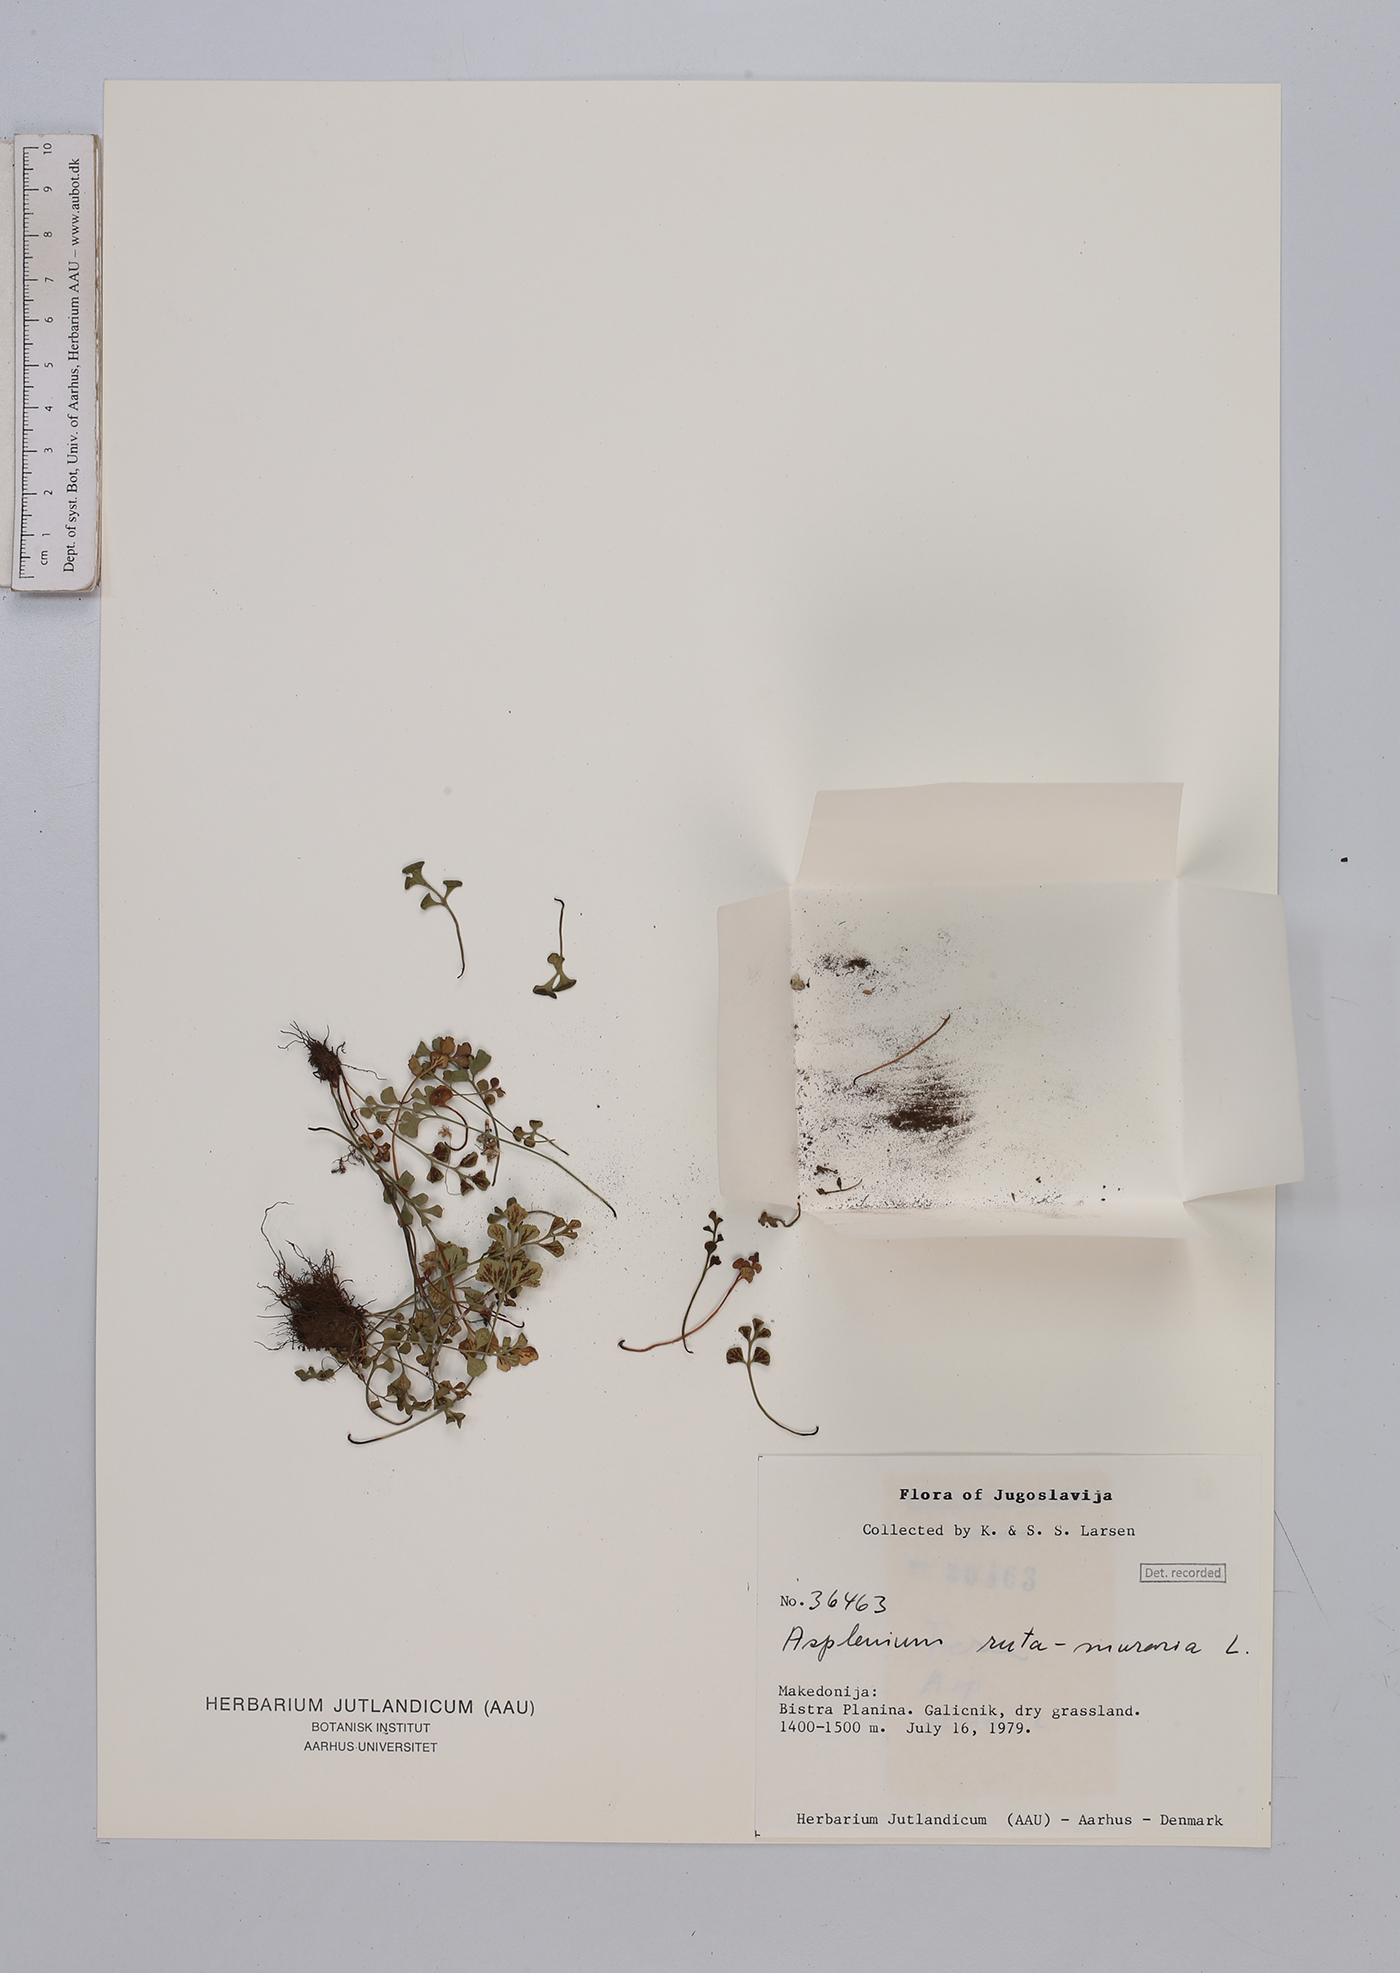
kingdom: Plantae
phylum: Tracheophyta
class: Polypodiopsida
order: Polypodiales
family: Aspleniaceae
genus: Asplenium
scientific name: Asplenium ruta-muraria
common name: Wall-rue
